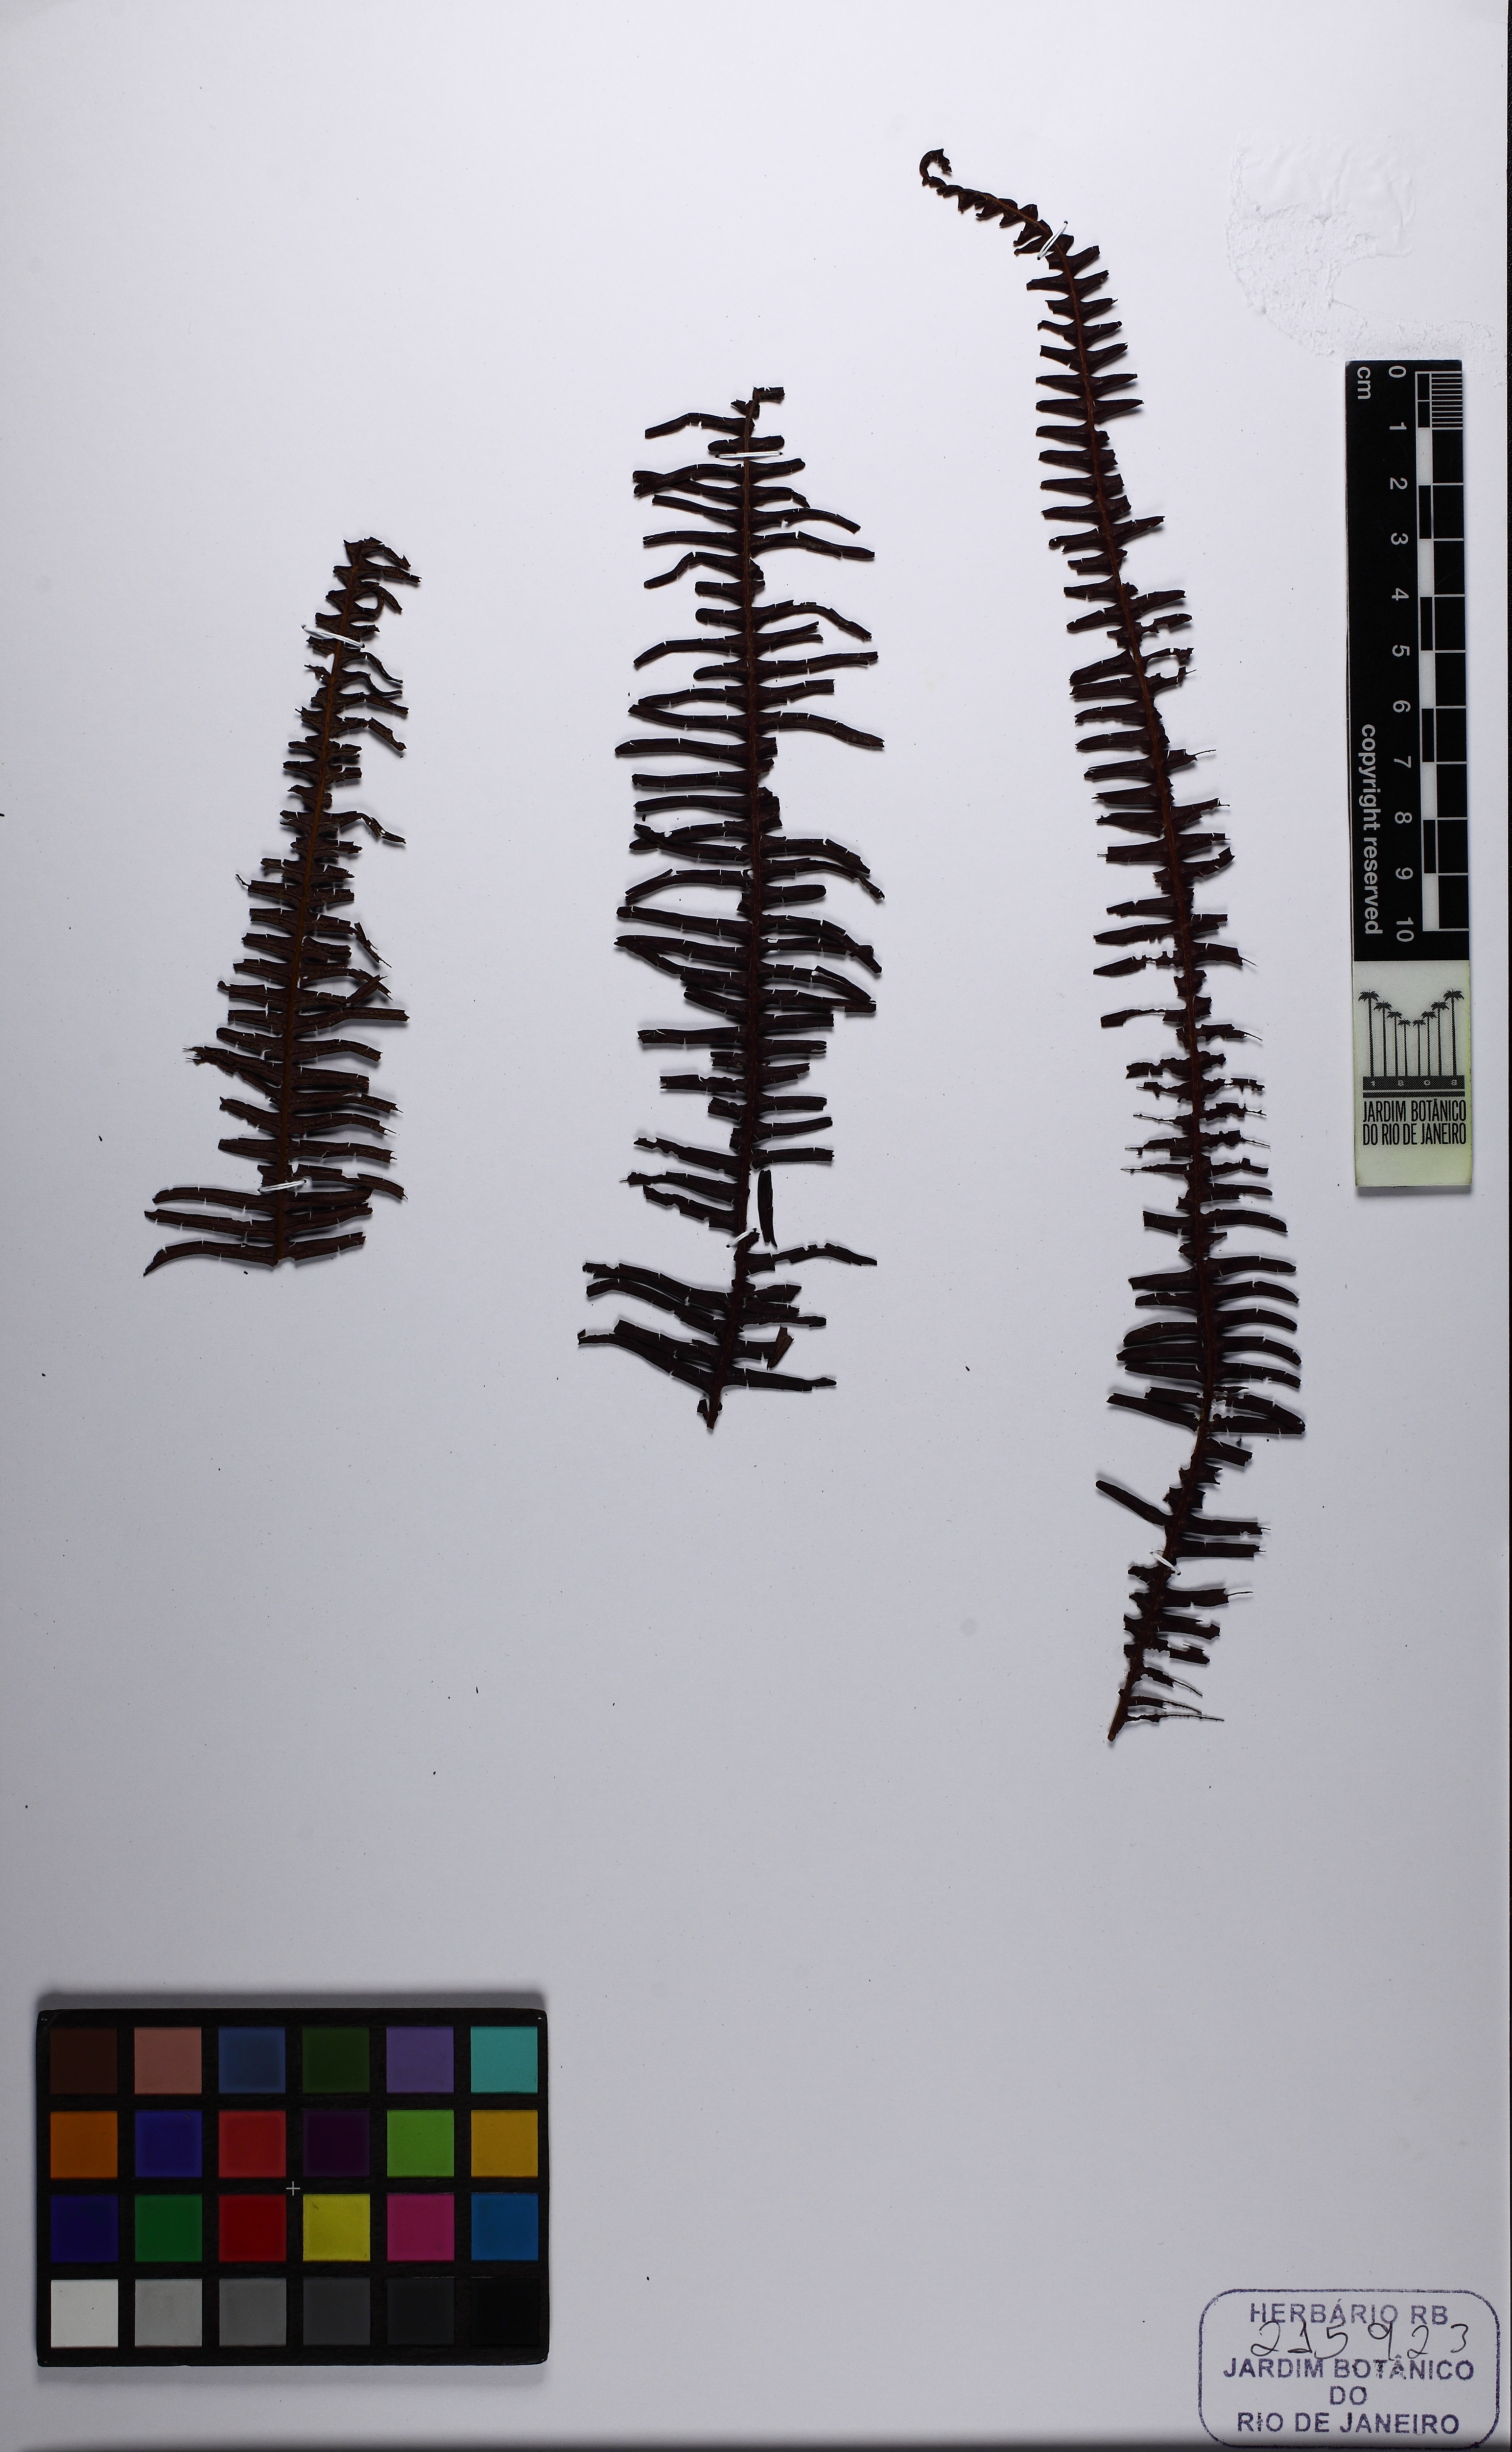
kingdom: Plantae
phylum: Tracheophyta
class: Polypodiopsida
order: Gleicheniales
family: Gleicheniaceae
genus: Sticherus
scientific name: Sticherus nigropaleaceus
